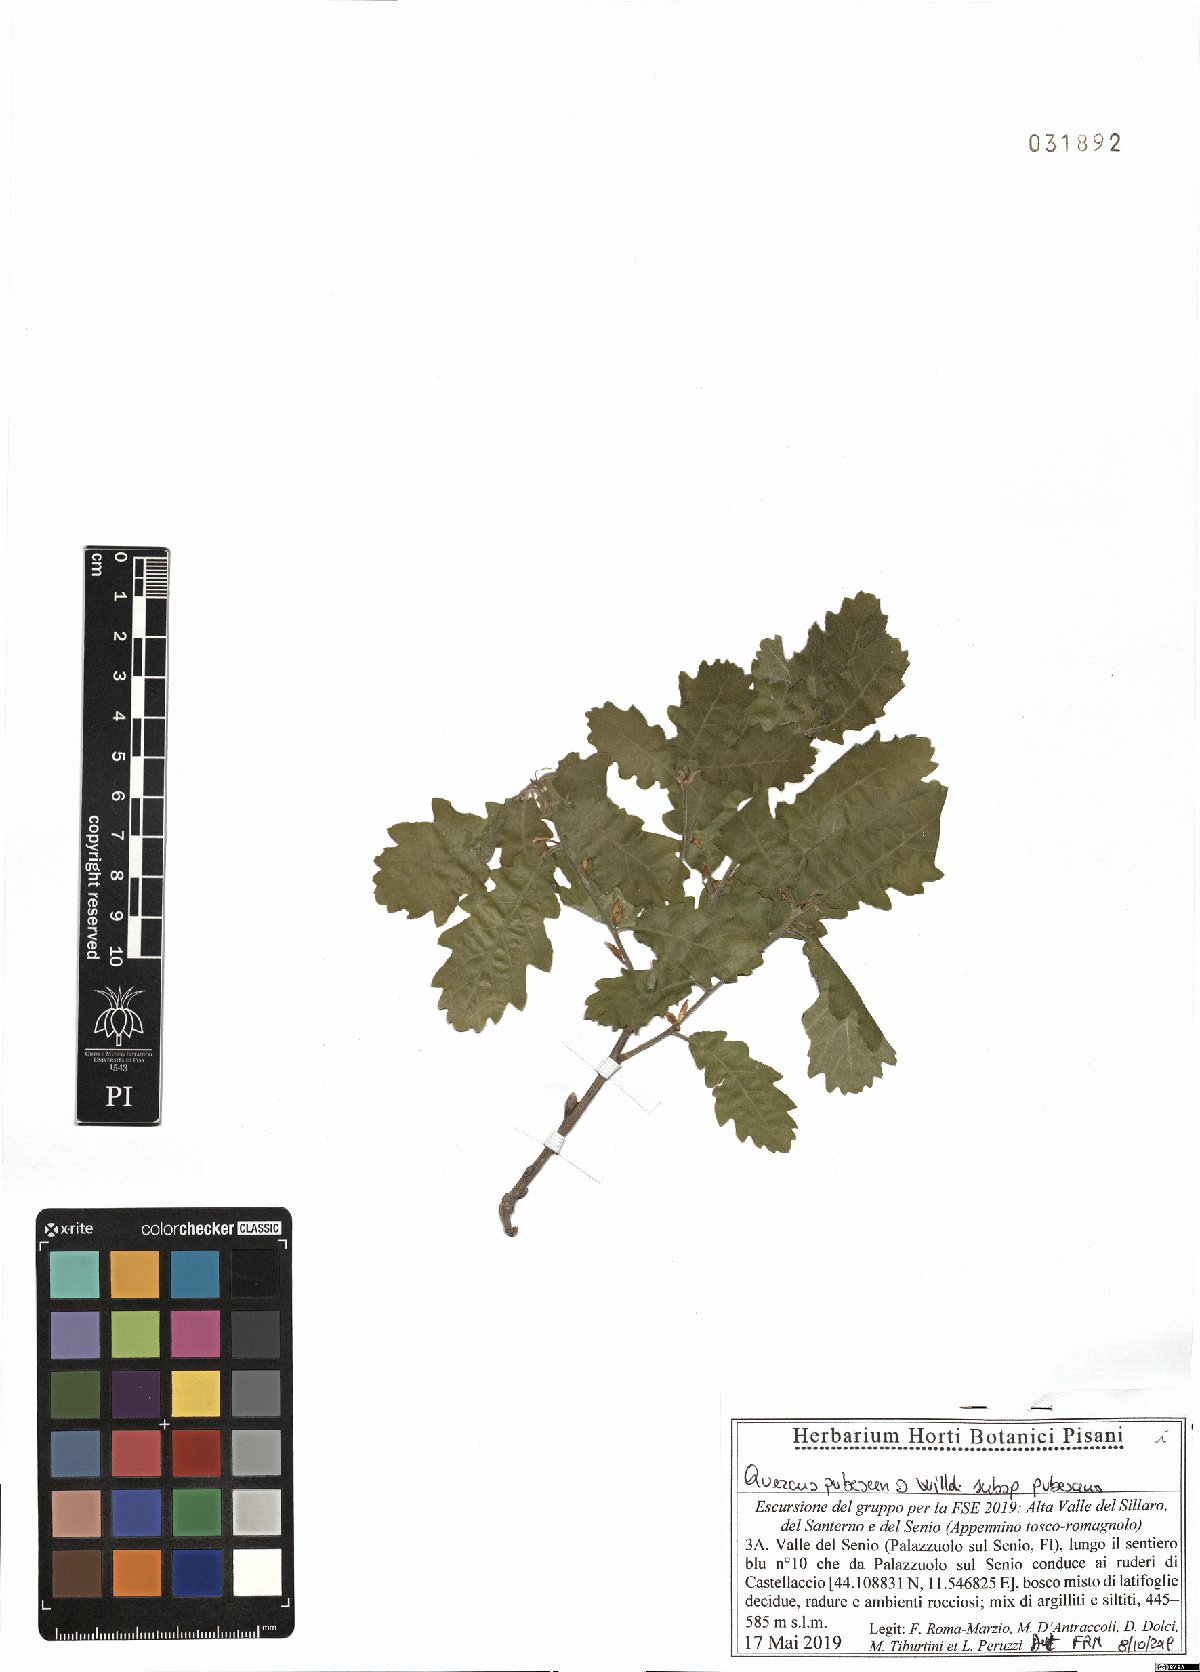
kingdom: Plantae
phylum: Tracheophyta
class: Magnoliopsida
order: Fagales
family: Fagaceae
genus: Quercus
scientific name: Quercus pubescens
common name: Downy oak
